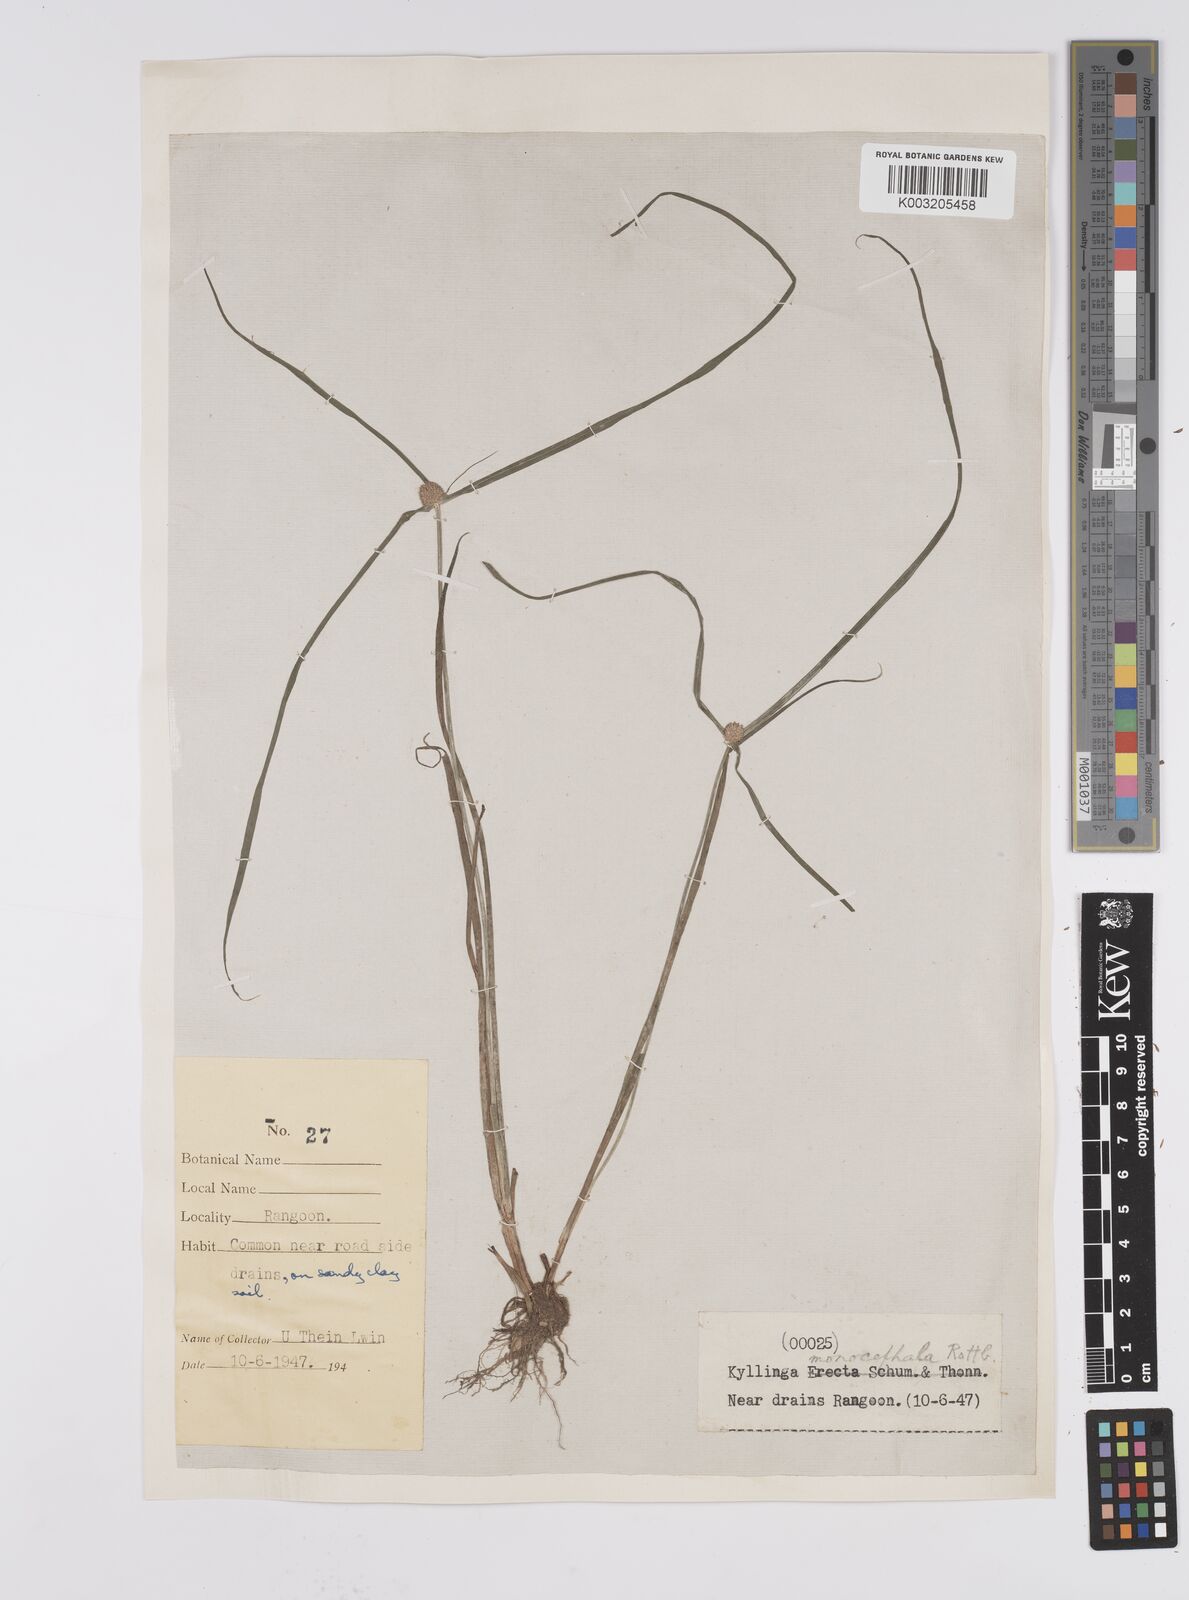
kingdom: Plantae
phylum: Tracheophyta
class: Liliopsida
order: Poales
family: Cyperaceae
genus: Cyperus
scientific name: Cyperus nemoralis
